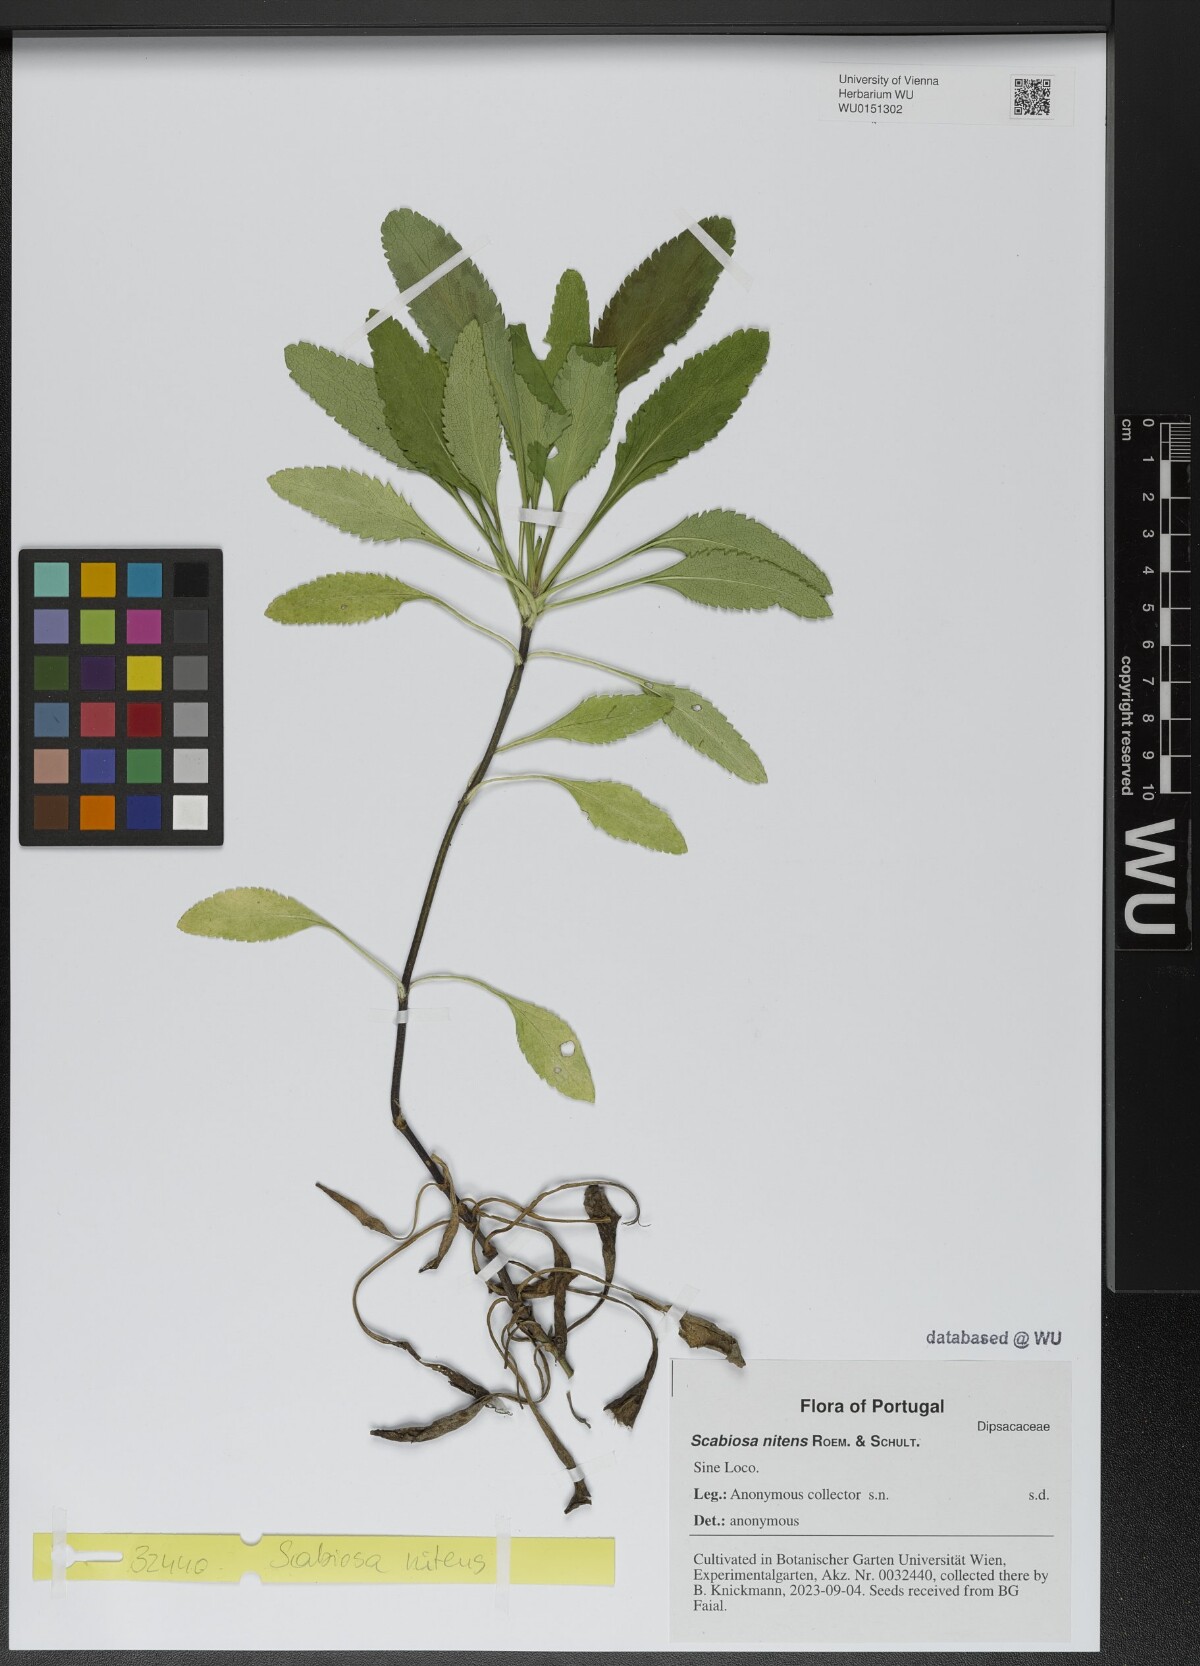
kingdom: Plantae
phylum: Tracheophyta
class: Magnoliopsida
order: Dipsacales
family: Caprifoliaceae
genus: Scabiosa
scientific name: Scabiosa nitens
